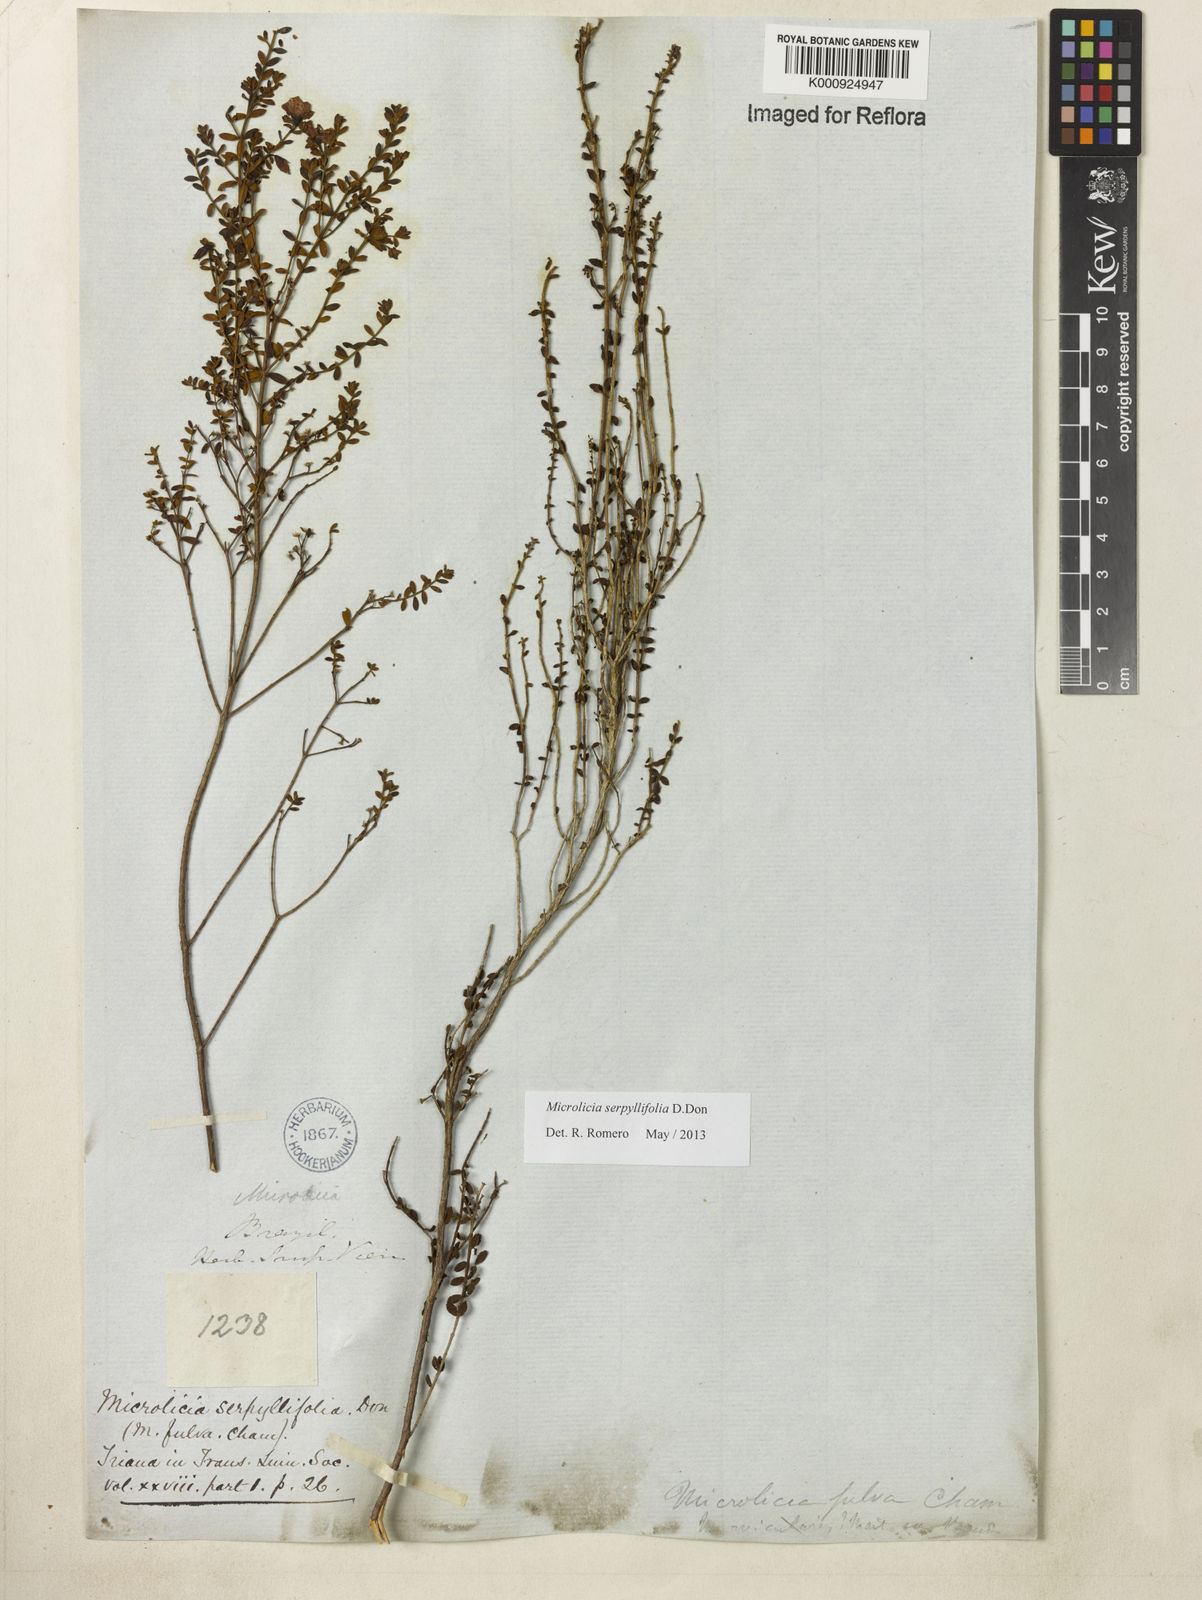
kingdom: Plantae
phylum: Tracheophyta
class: Magnoliopsida
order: Myrtales
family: Melastomataceae
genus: Microlicia
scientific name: Microlicia fulva
